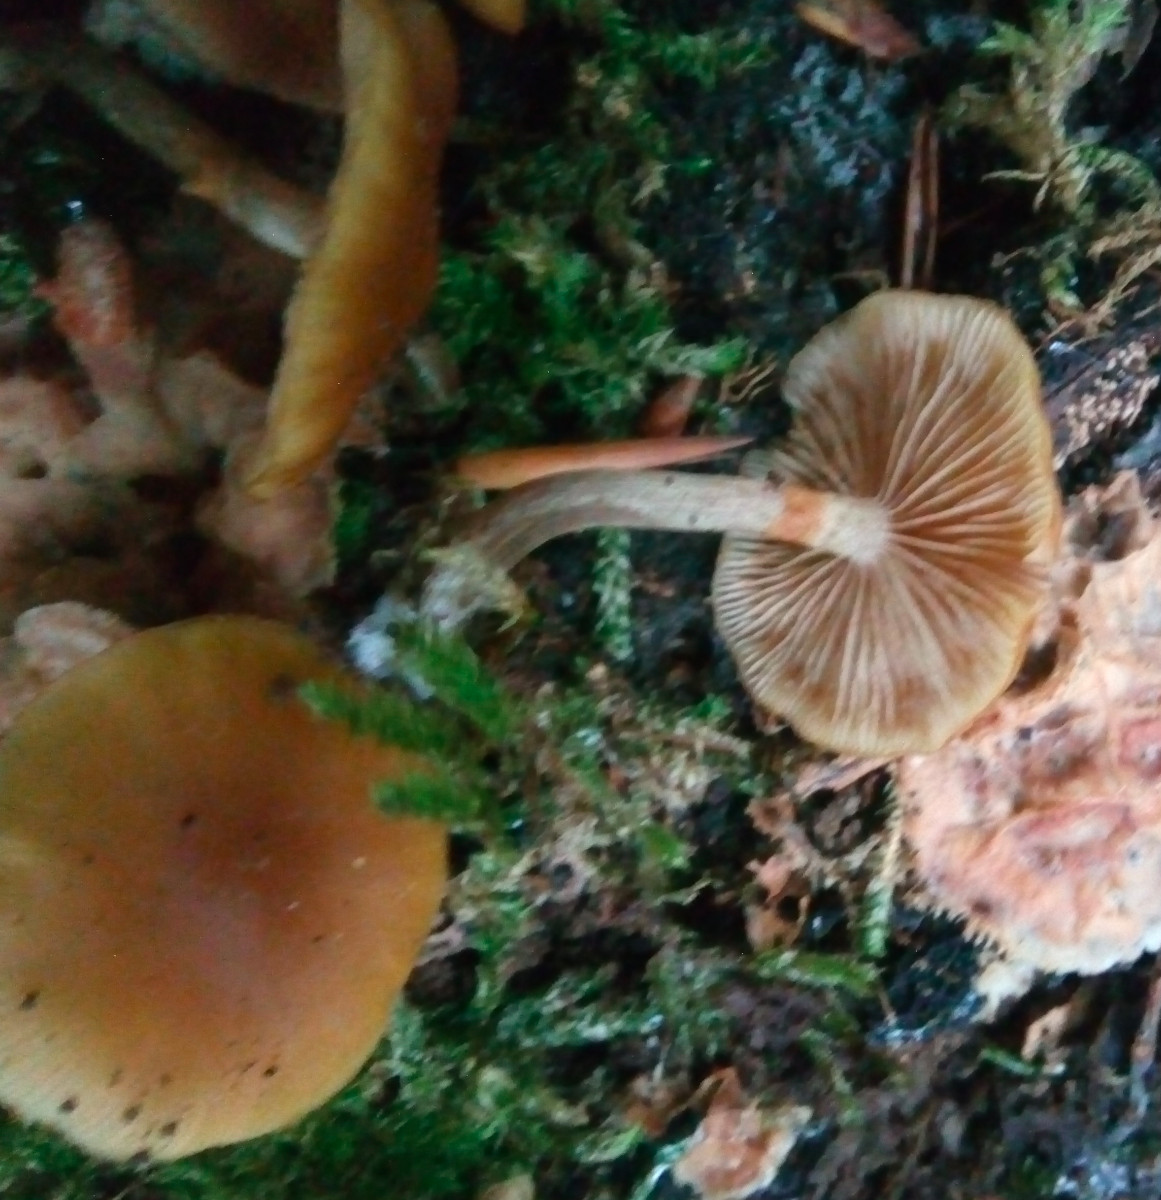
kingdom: Fungi
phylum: Basidiomycota
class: Agaricomycetes
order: Agaricales
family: Hymenogastraceae
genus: Galerina
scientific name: Galerina marginata
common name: randbæltet hjelmhat
